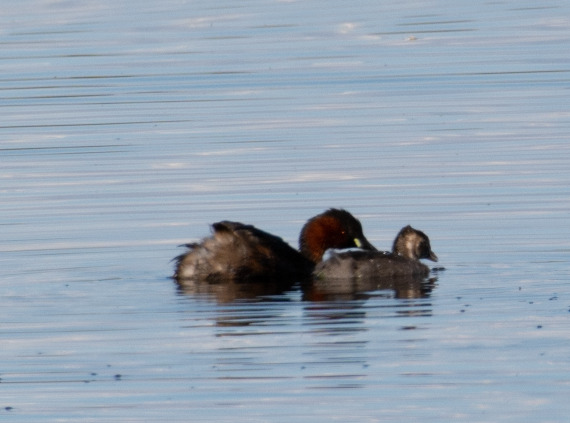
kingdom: Animalia
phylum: Chordata
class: Aves
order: Podicipediformes
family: Podicipedidae
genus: Tachybaptus
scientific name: Tachybaptus ruficollis
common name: Lille lappedykker
